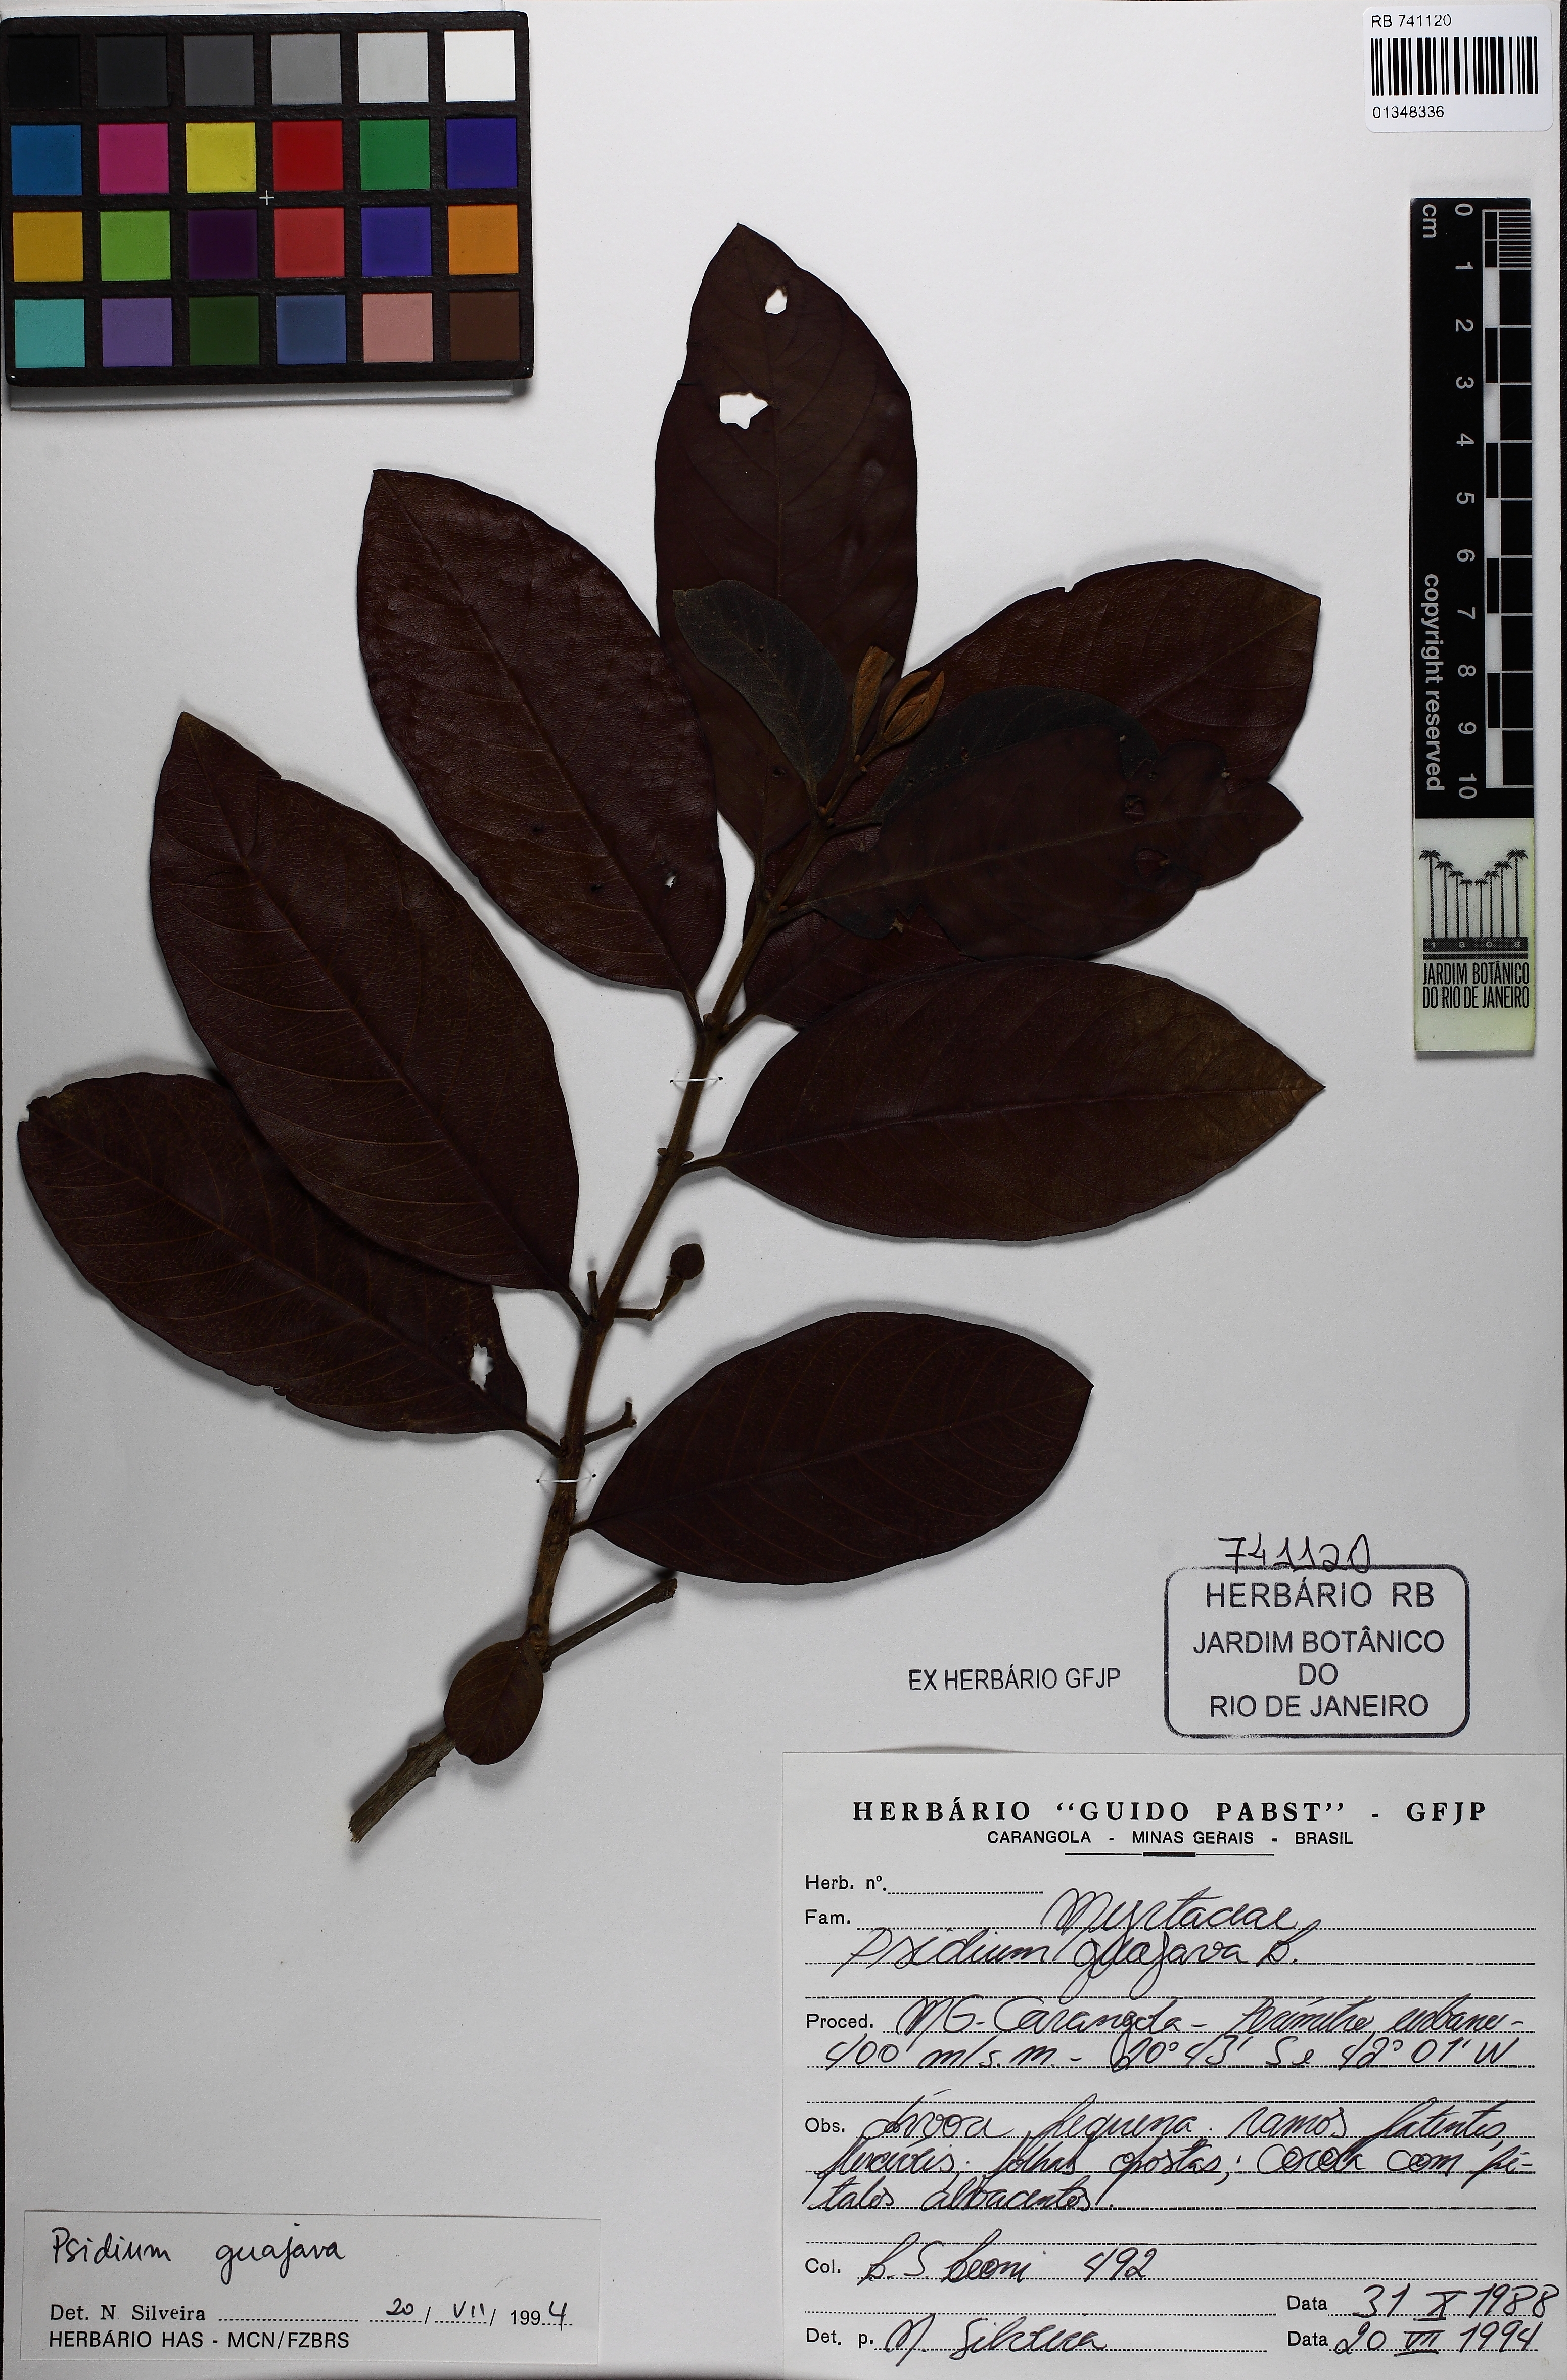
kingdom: Plantae
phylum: Tracheophyta
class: Magnoliopsida
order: Myrtales
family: Myrtaceae
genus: Psidium
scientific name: Psidium guajava
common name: Guava
